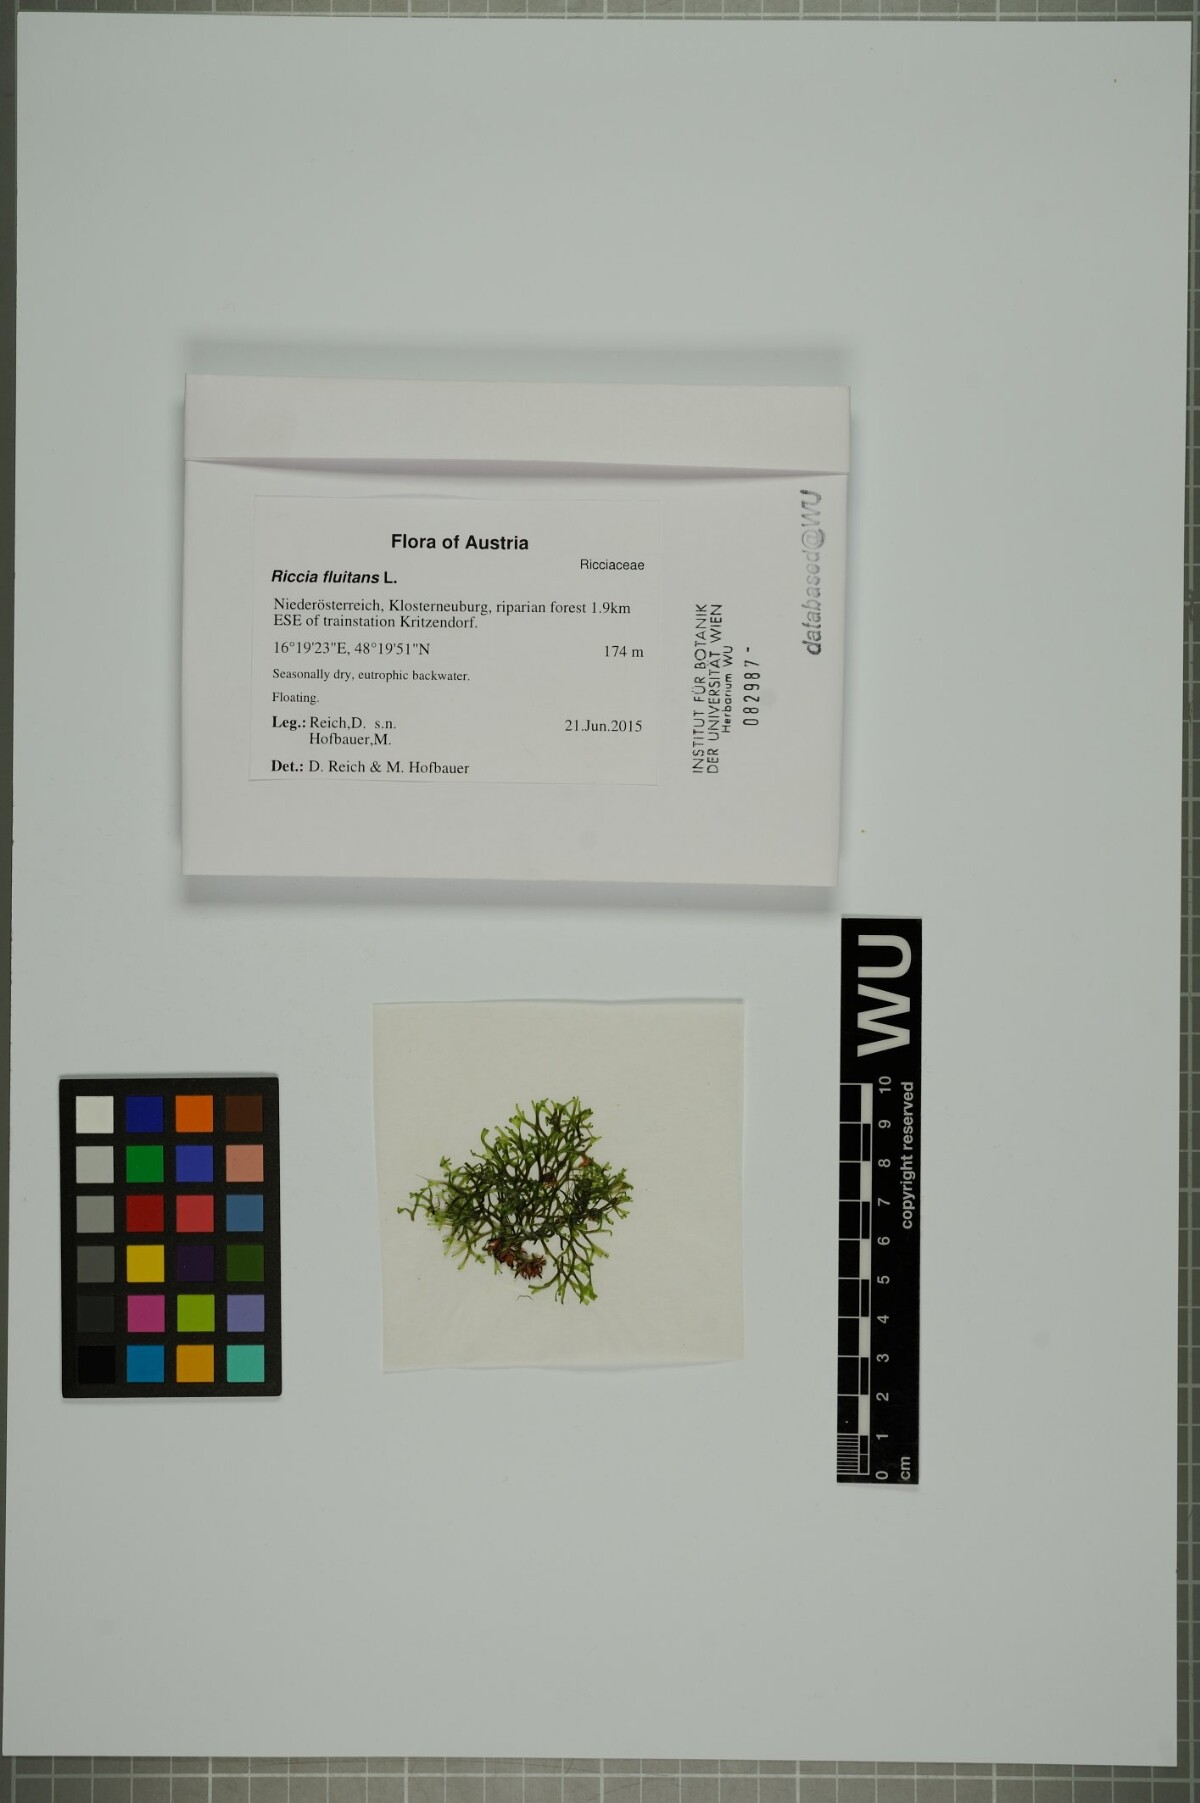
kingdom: Plantae
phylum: Marchantiophyta
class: Marchantiopsida
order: Marchantiales
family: Ricciaceae
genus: Riccia
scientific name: Riccia fluitans
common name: Floating crystalwort
